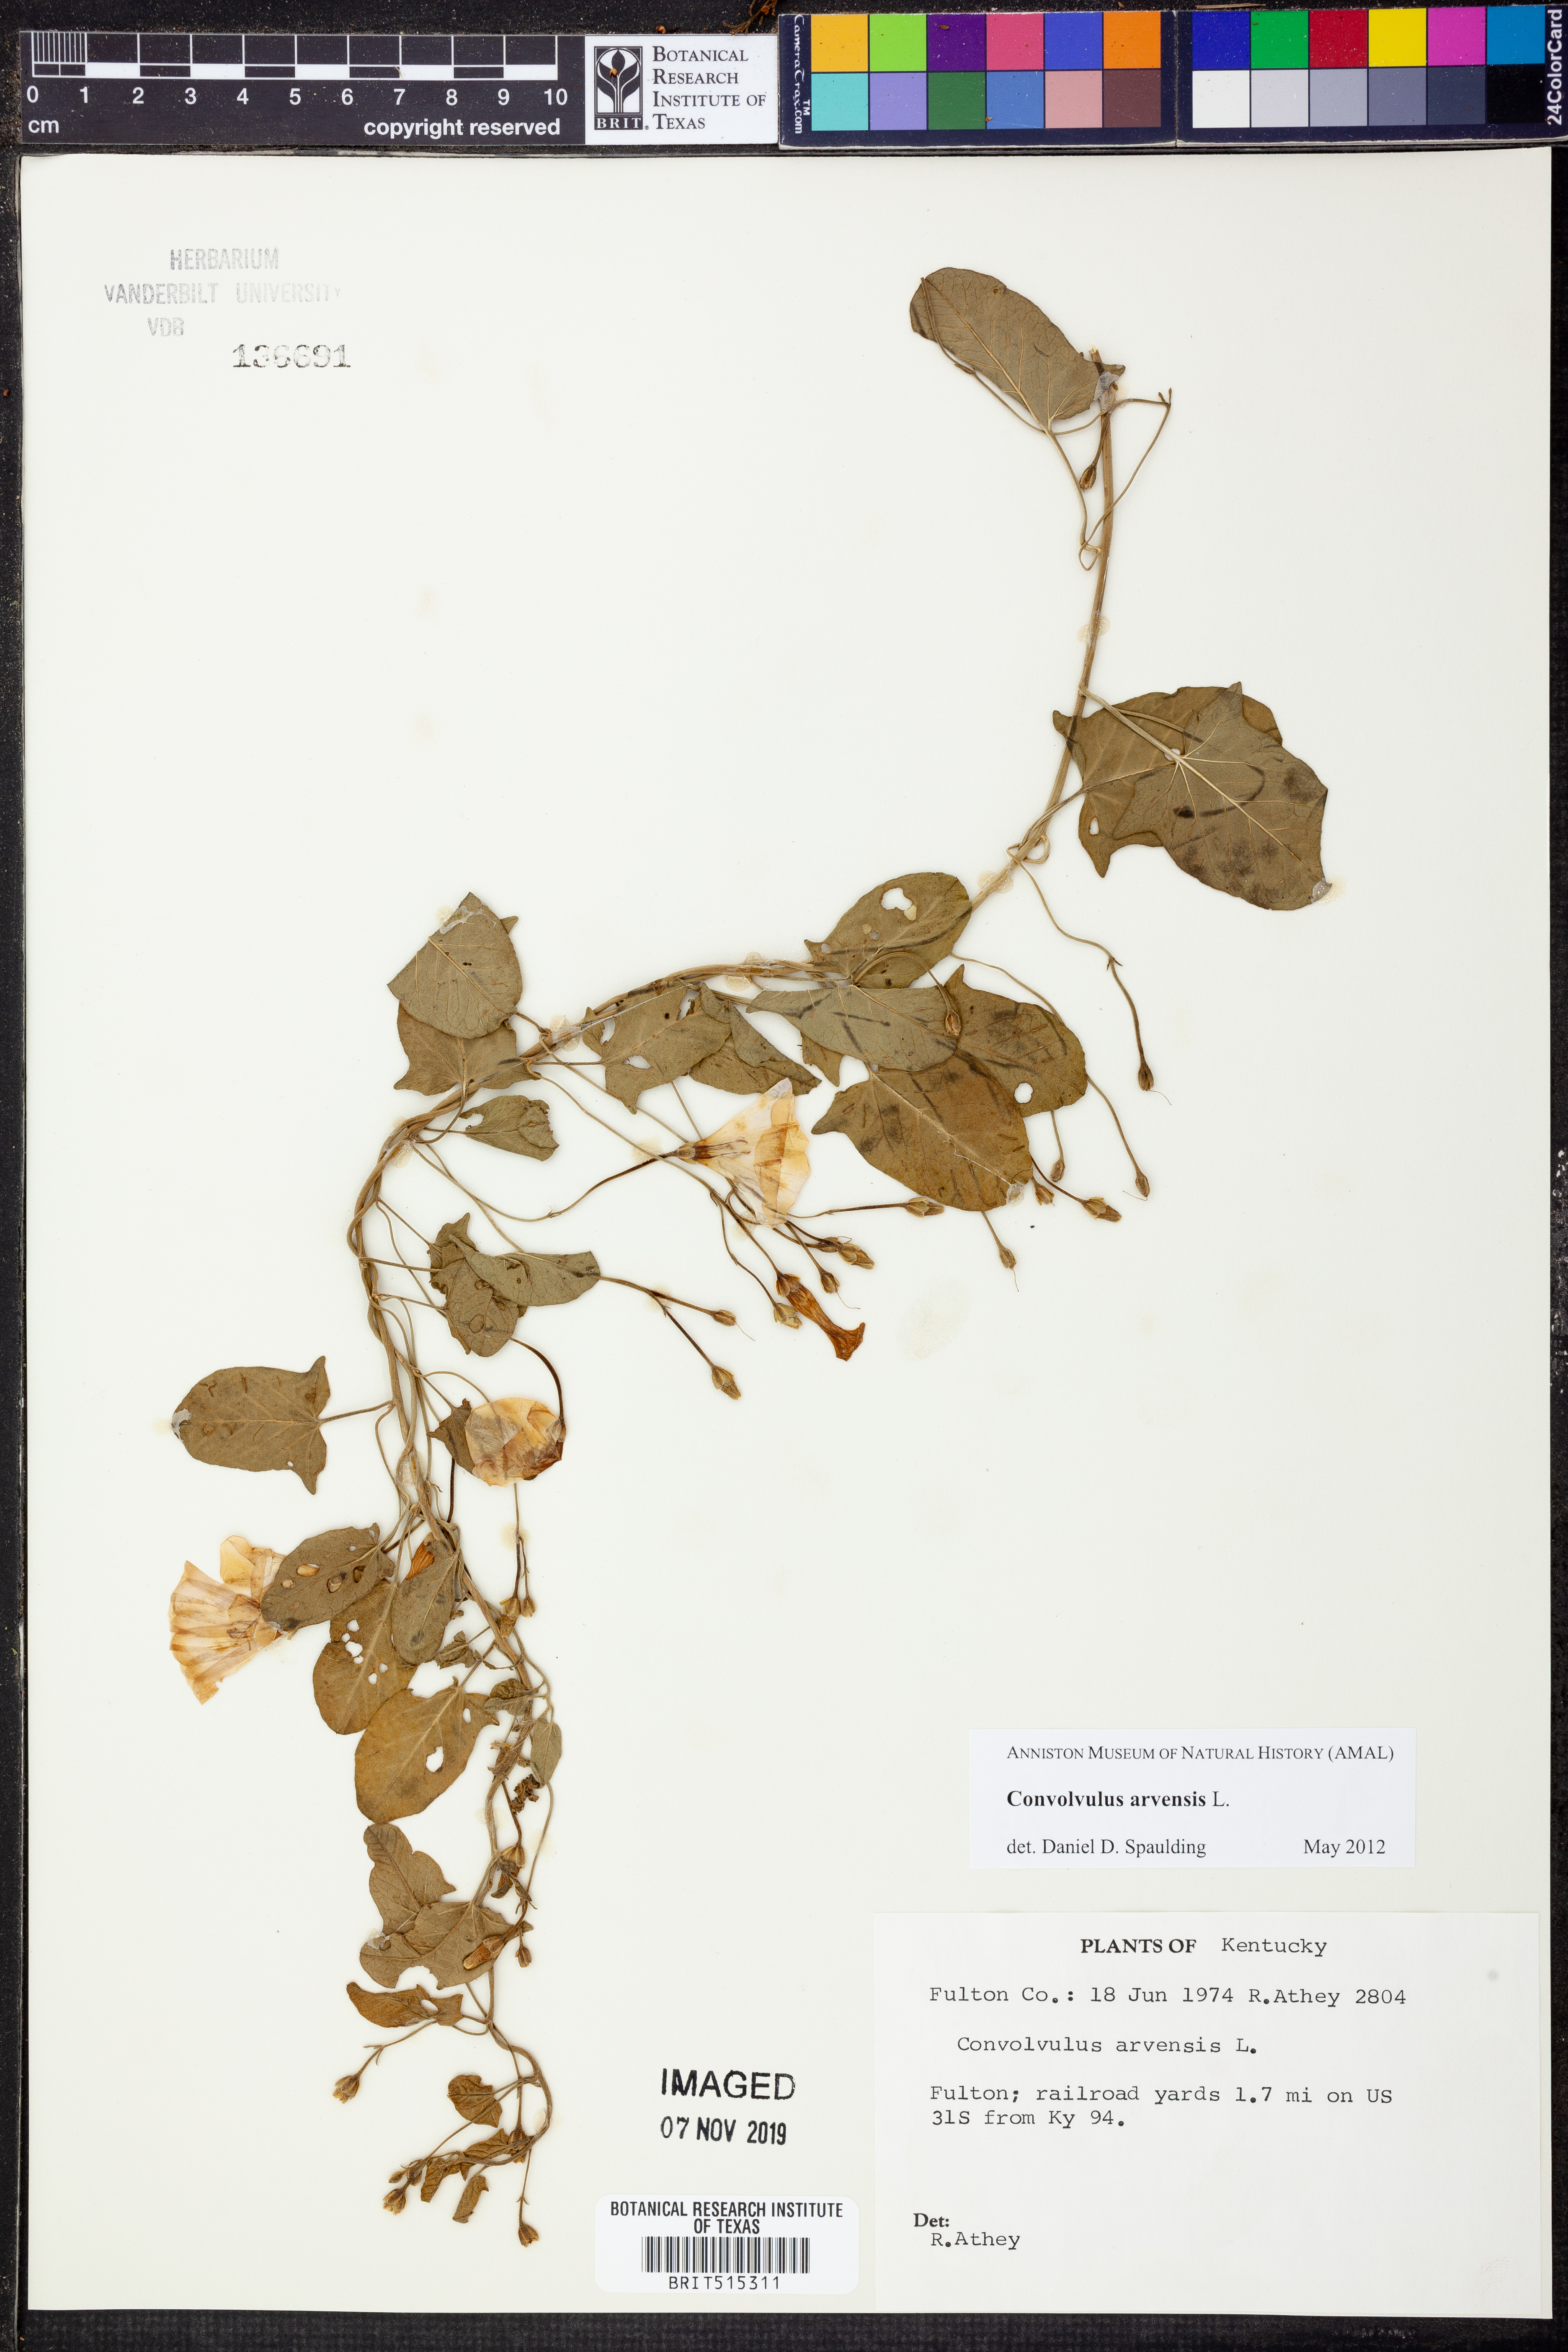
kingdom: Plantae
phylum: Tracheophyta
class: Magnoliopsida
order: Solanales
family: Convolvulaceae
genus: Convolvulus
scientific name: Convolvulus arvensis
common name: Field bindweed
